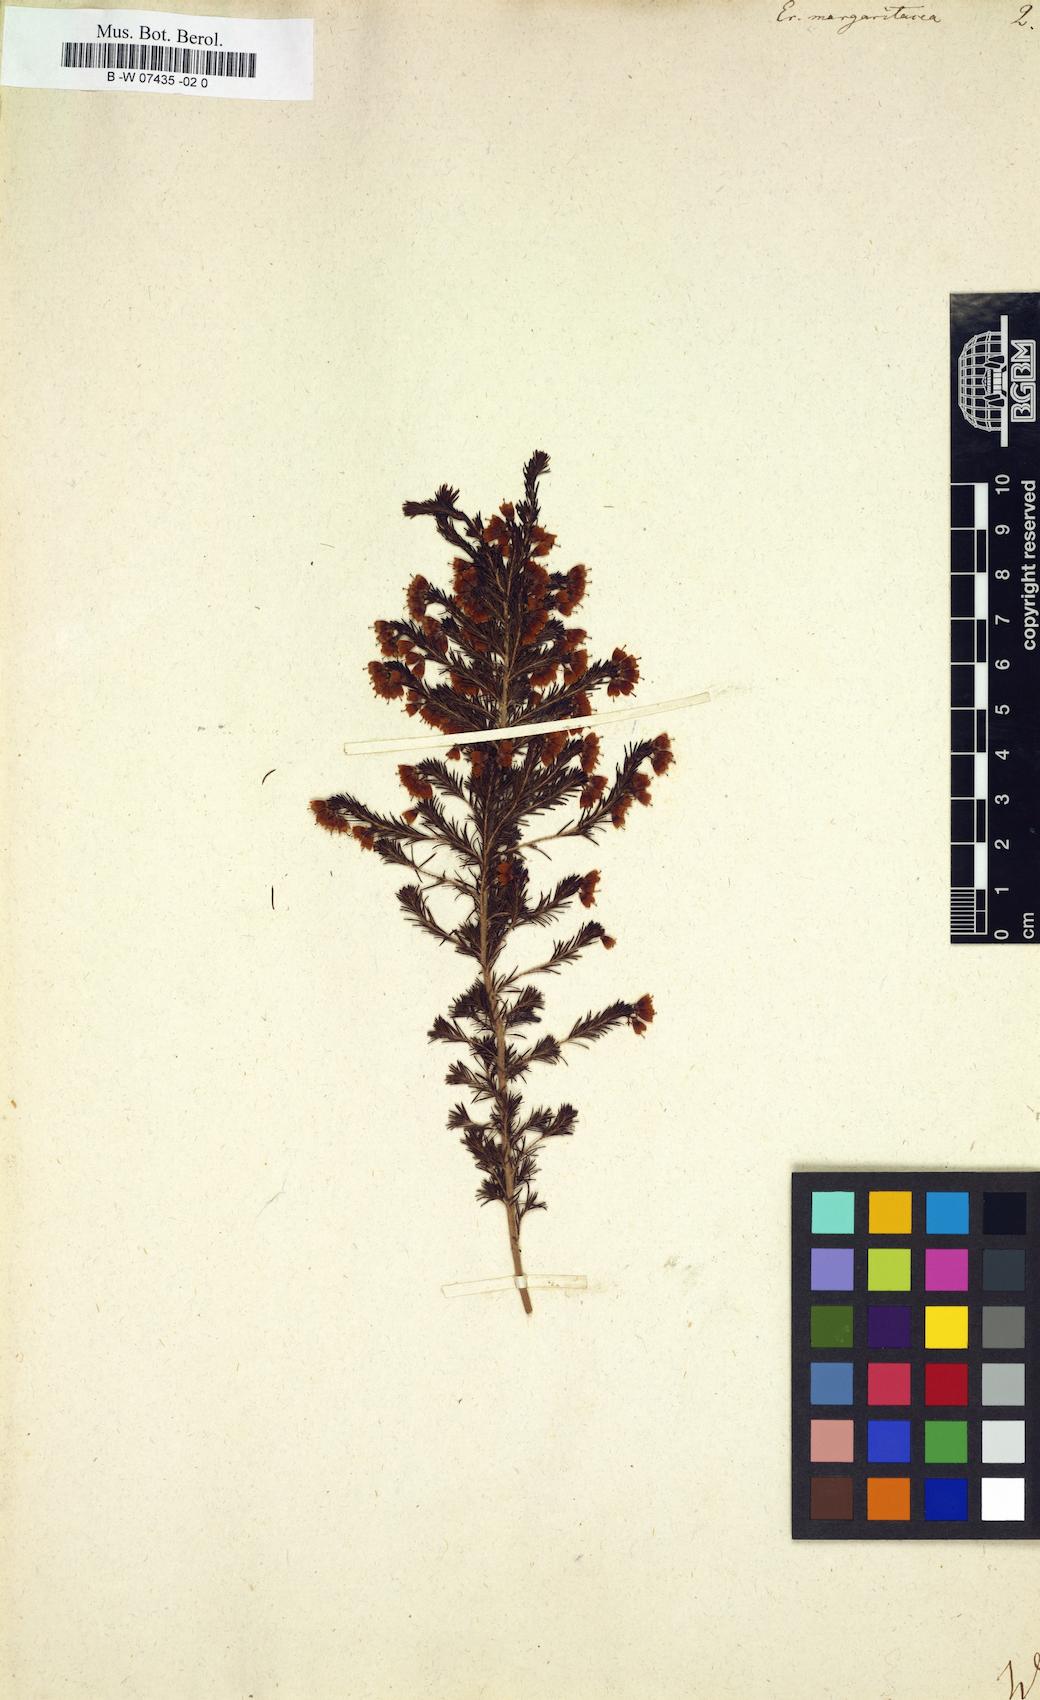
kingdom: Plantae
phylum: Tracheophyta
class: Magnoliopsida
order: Ericales
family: Ericaceae
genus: Erica
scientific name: Erica margaritacea
